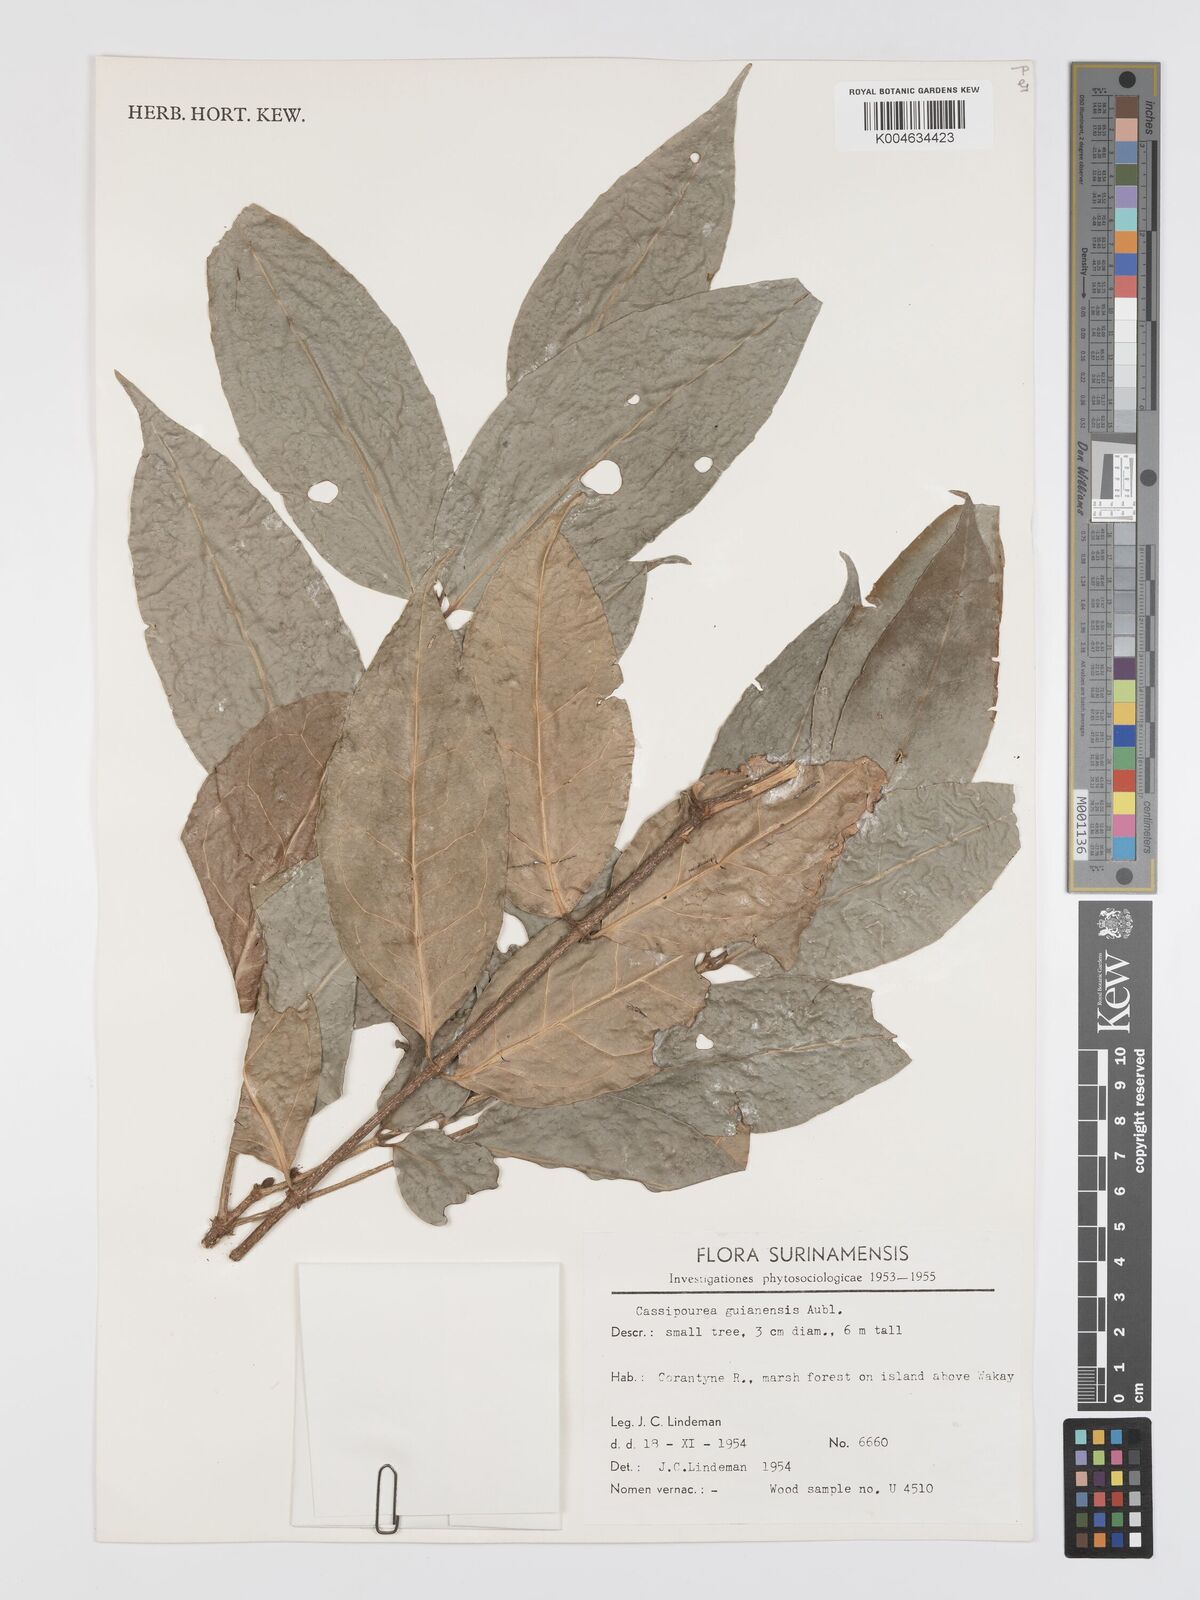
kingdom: Plantae
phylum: Tracheophyta
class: Magnoliopsida
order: Malpighiales
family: Rhizophoraceae
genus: Cassipourea
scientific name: Cassipourea guianensis
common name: Bastard waterwood
